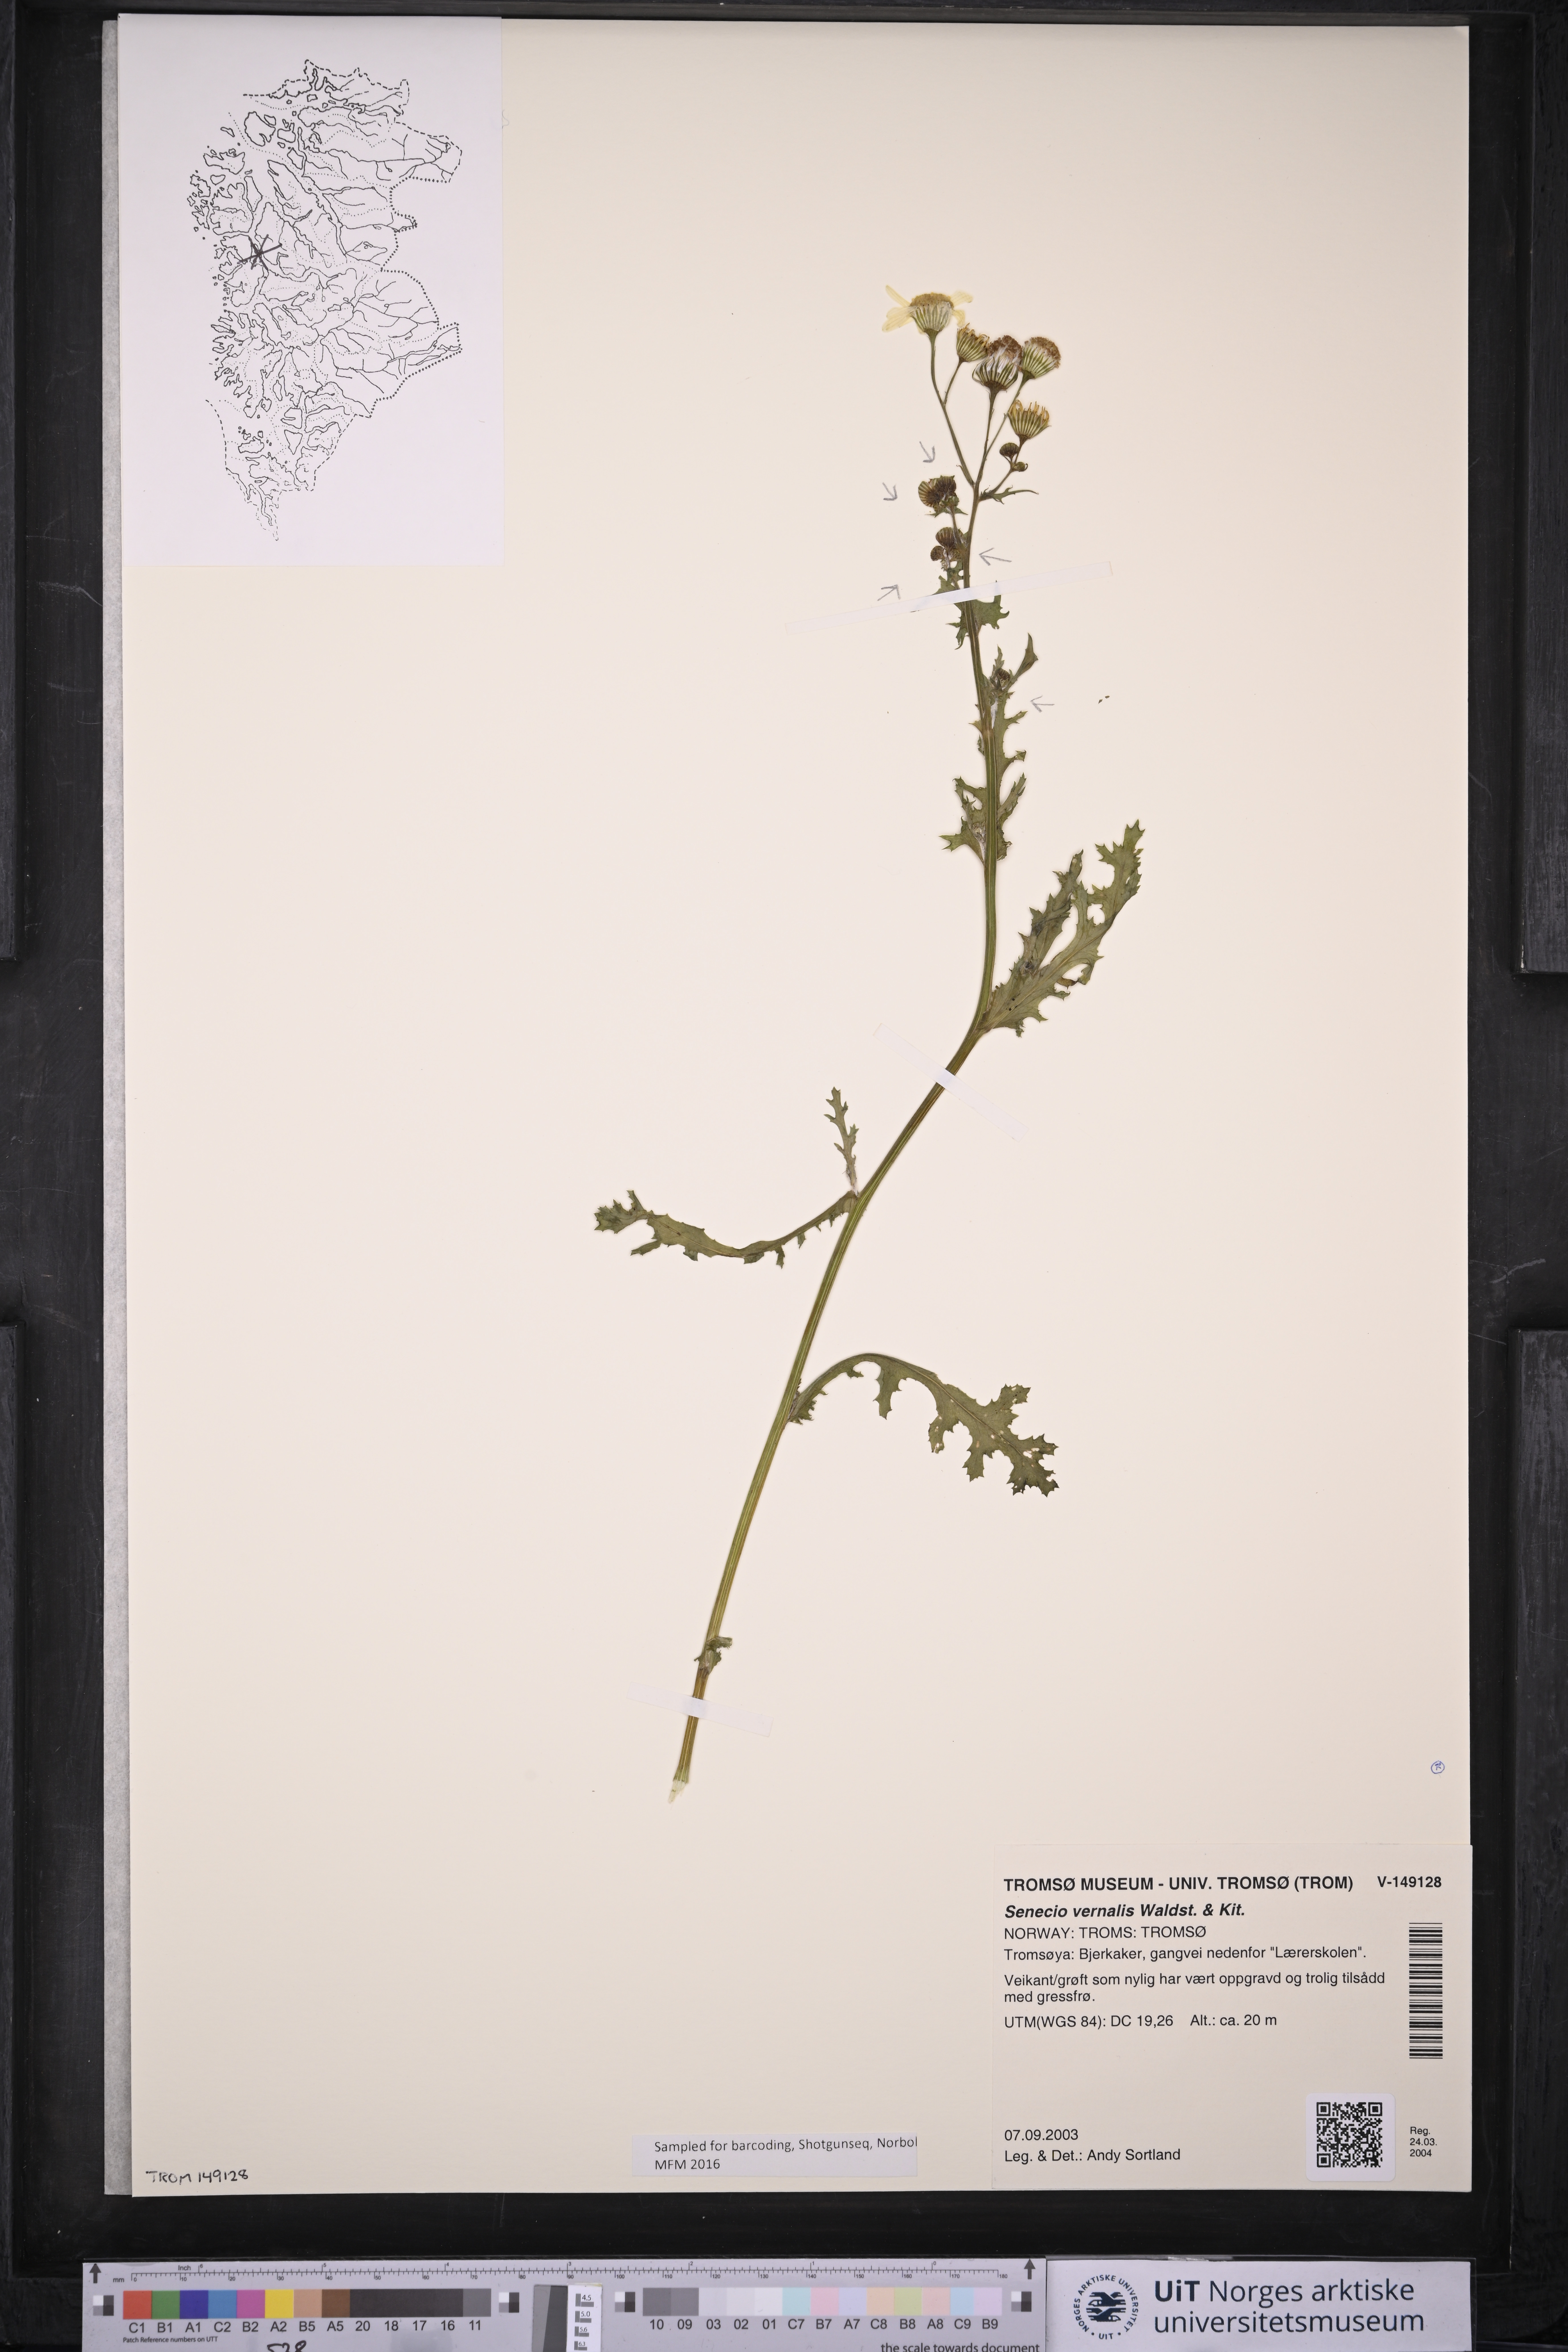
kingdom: Plantae
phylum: Tracheophyta
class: Magnoliopsida
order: Asterales
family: Asteraceae
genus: Senecio
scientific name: Senecio vernalis
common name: Eastern groundsel
